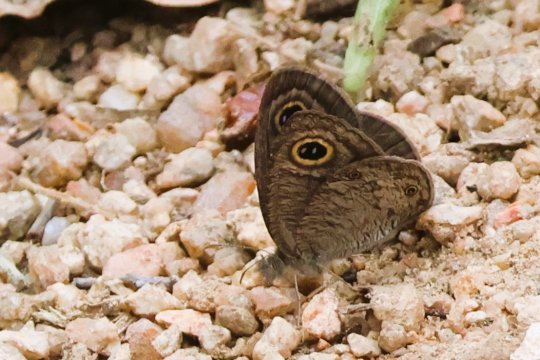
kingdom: Animalia
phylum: Arthropoda
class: Insecta
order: Lepidoptera
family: Nymphalidae
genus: Ypthima
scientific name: Ypthima asterope
